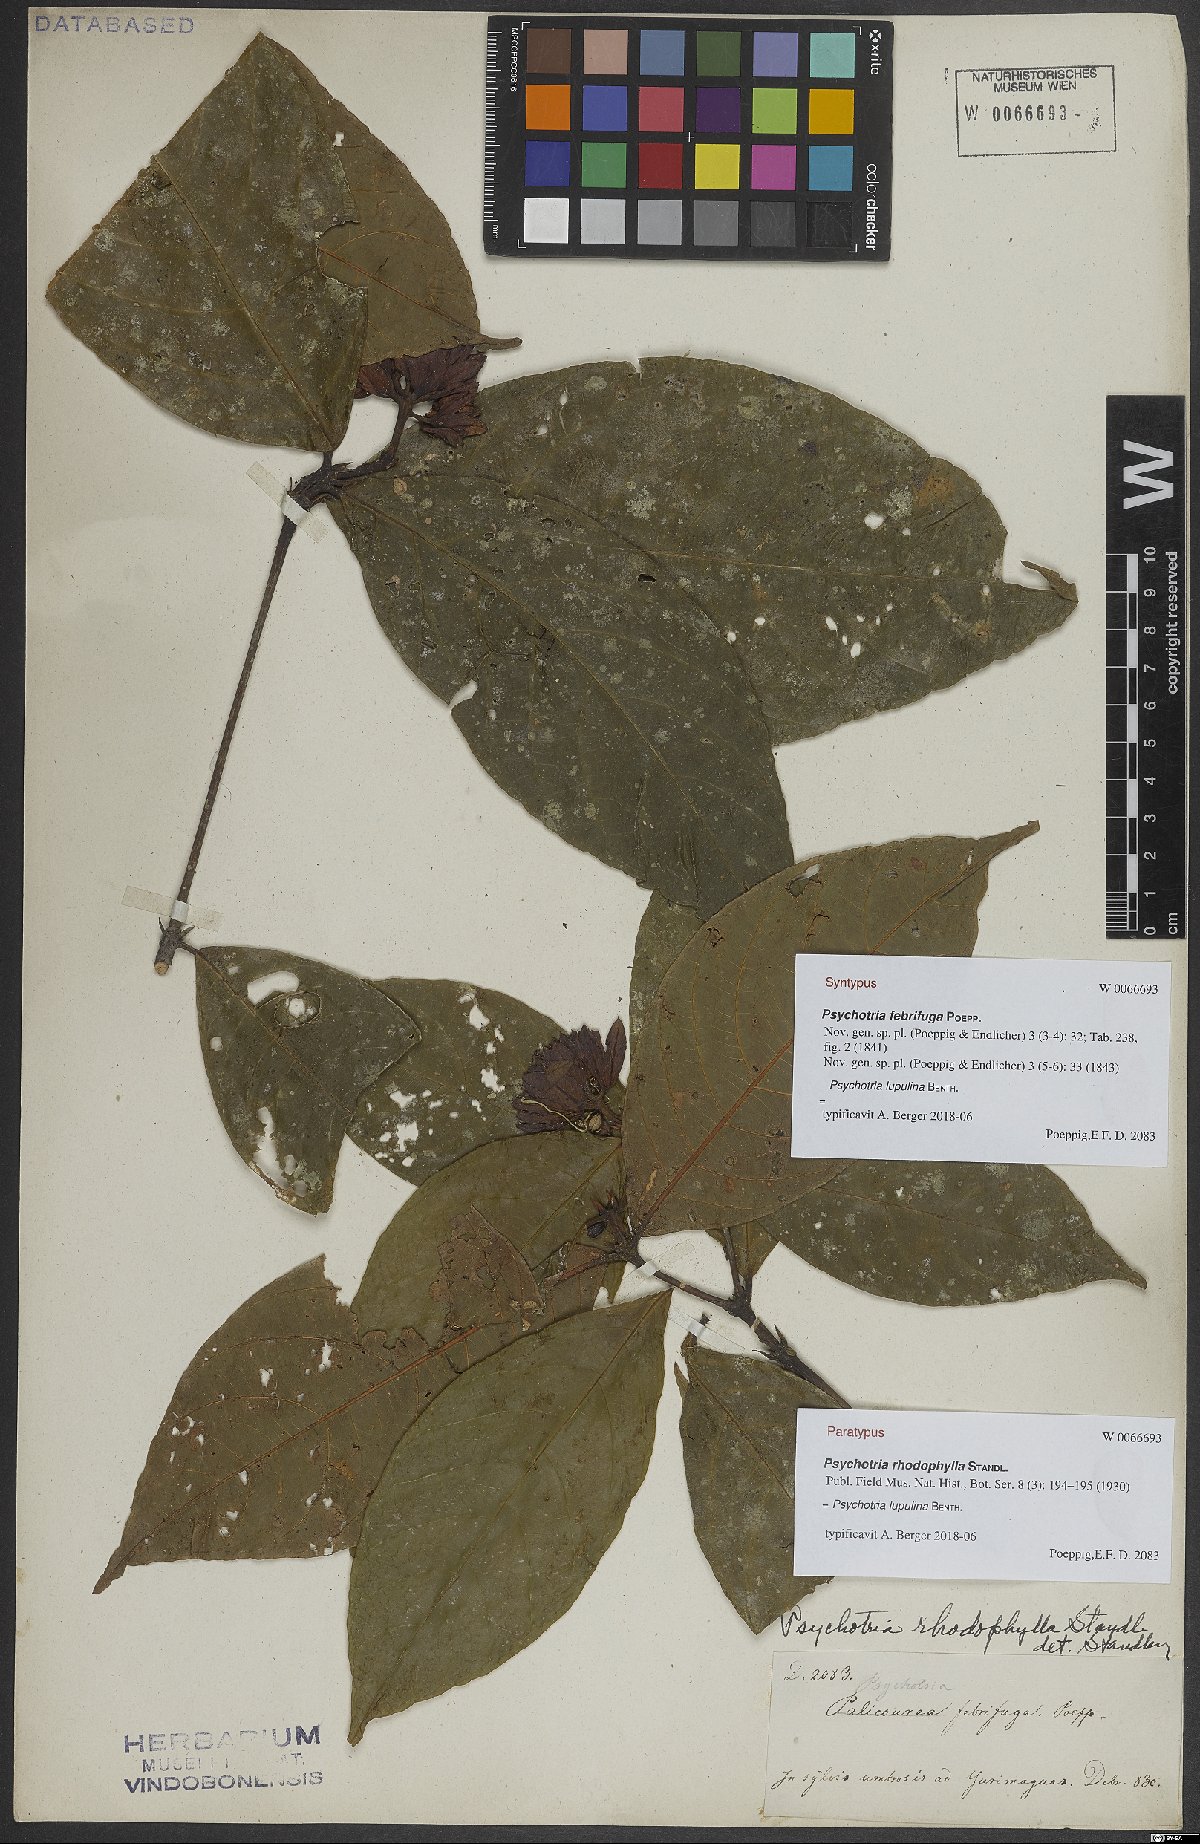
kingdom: Plantae
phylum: Tracheophyta
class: Magnoliopsida
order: Gentianales
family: Rubiaceae
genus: Palicourea
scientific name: Palicourea justiciifolia
